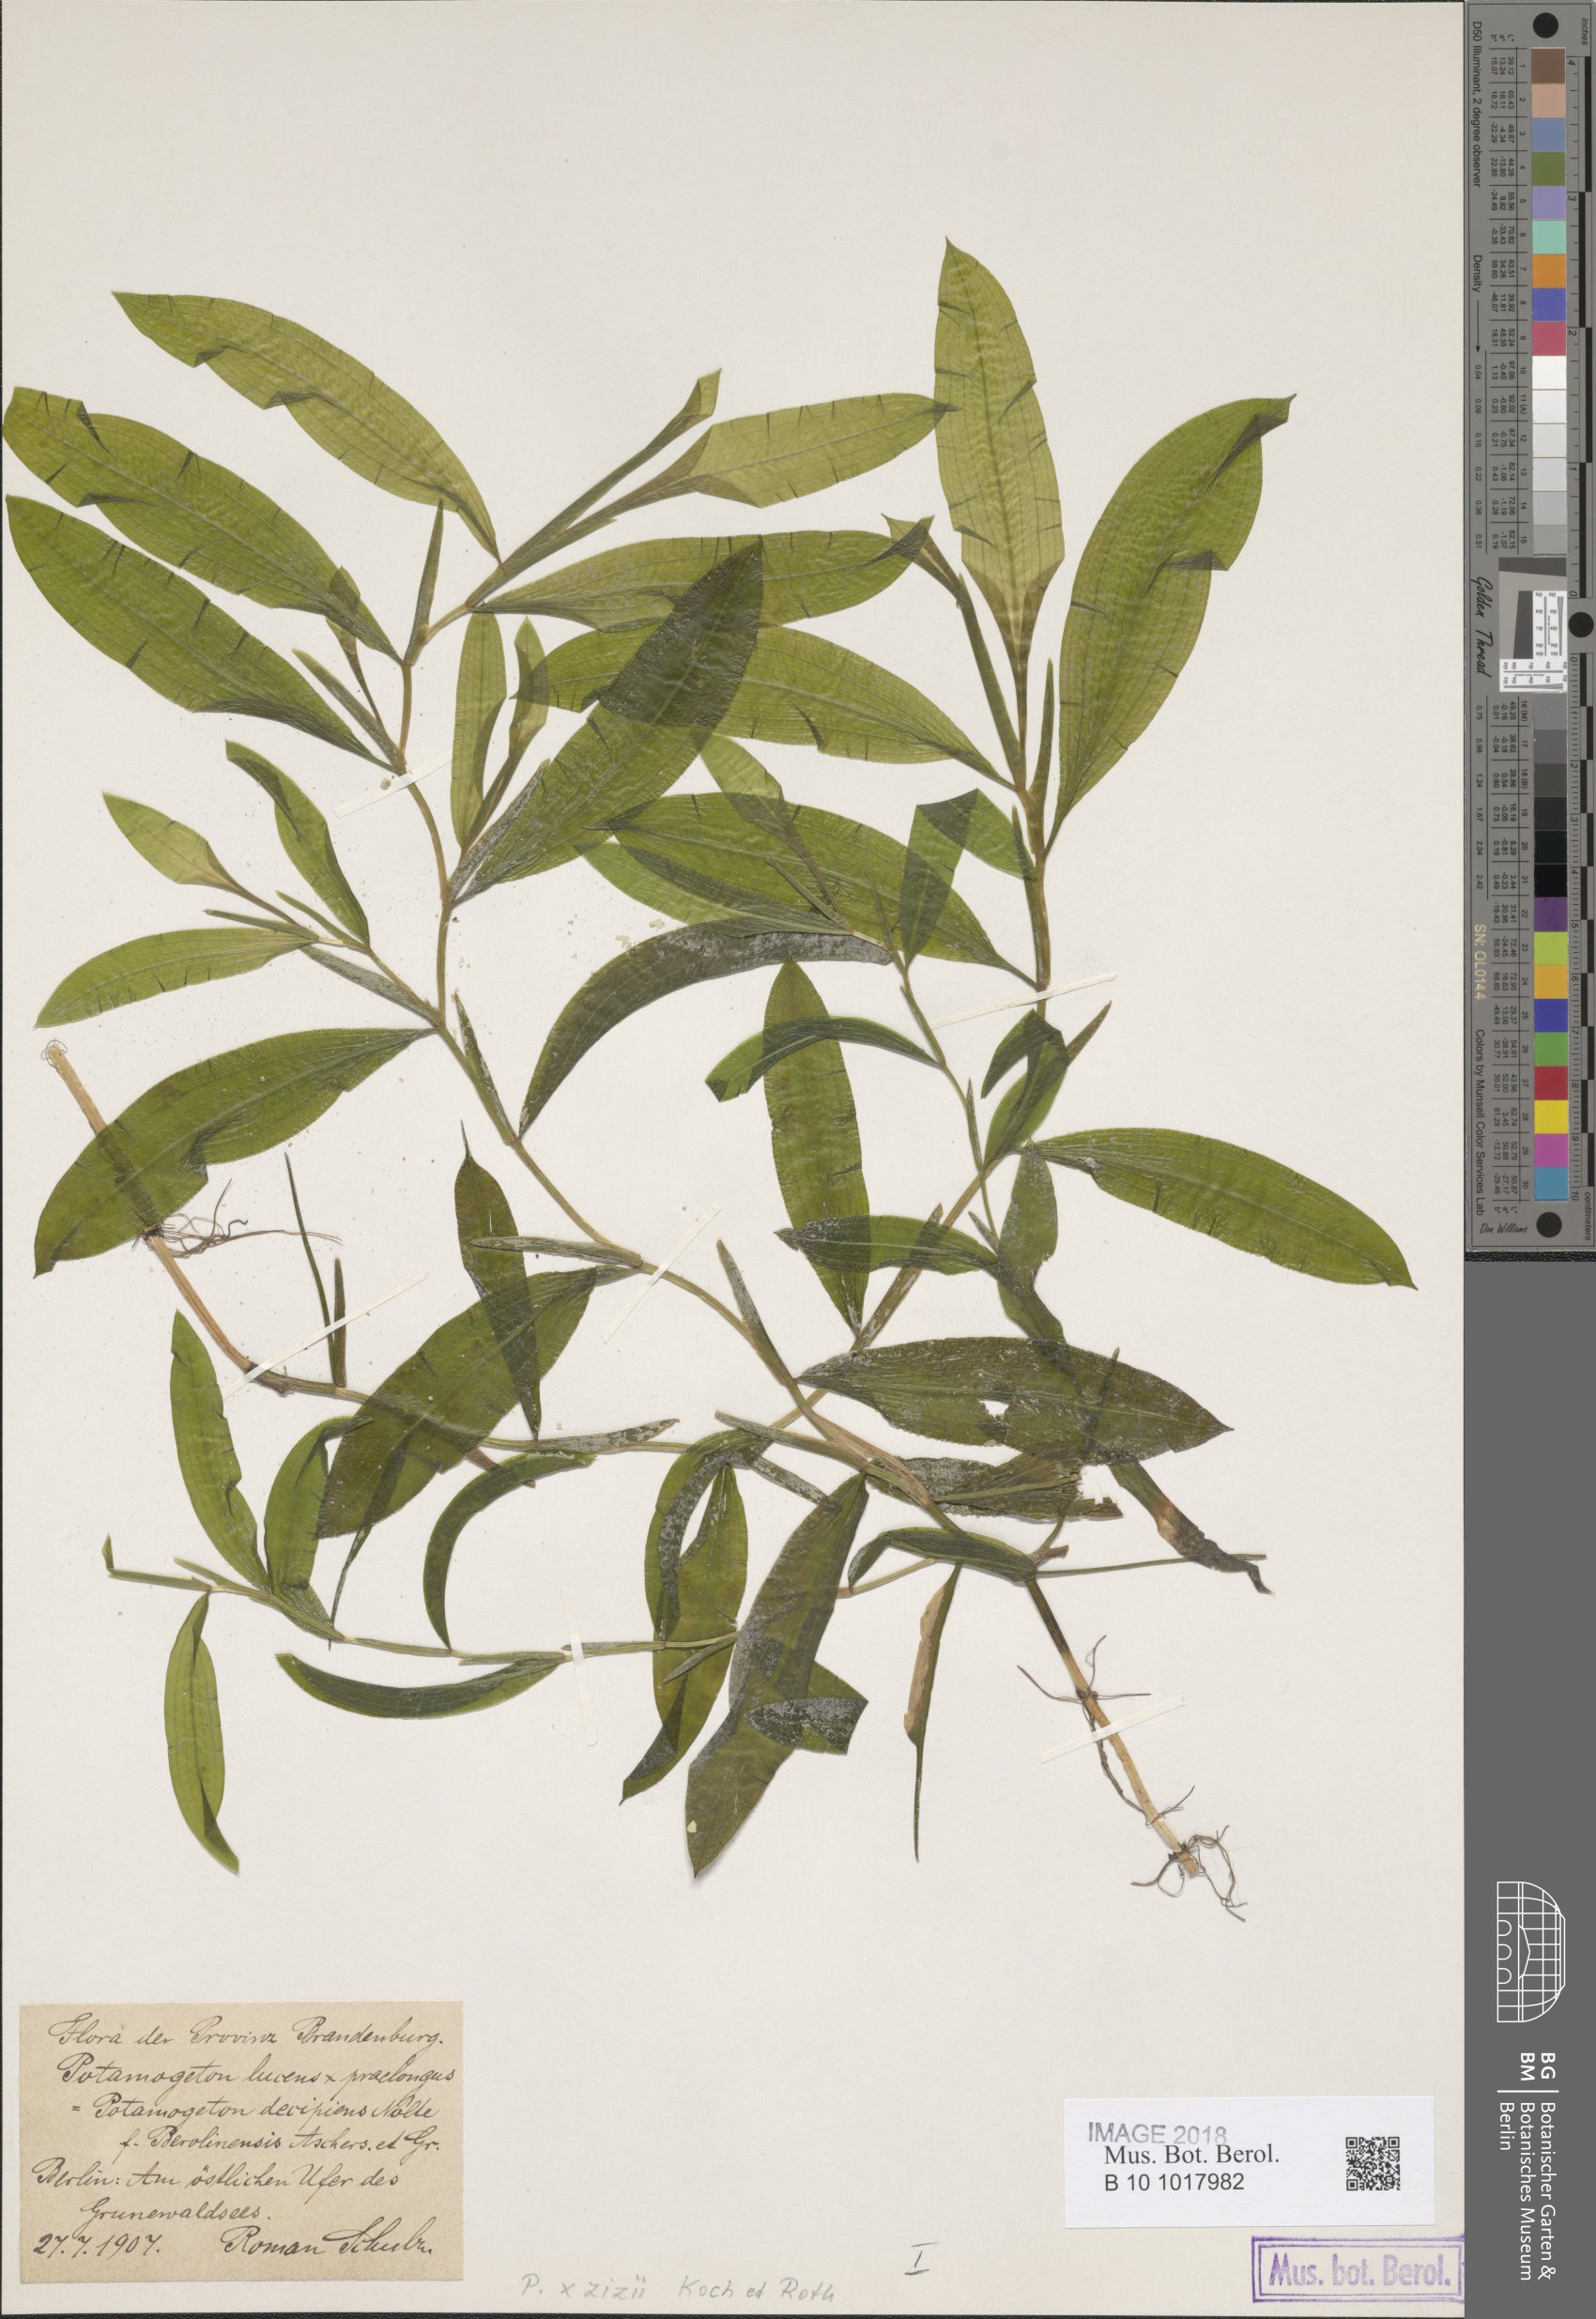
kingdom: Plantae
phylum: Tracheophyta
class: Liliopsida
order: Alismatales
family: Potamogetonaceae
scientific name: Potamogetonaceae
